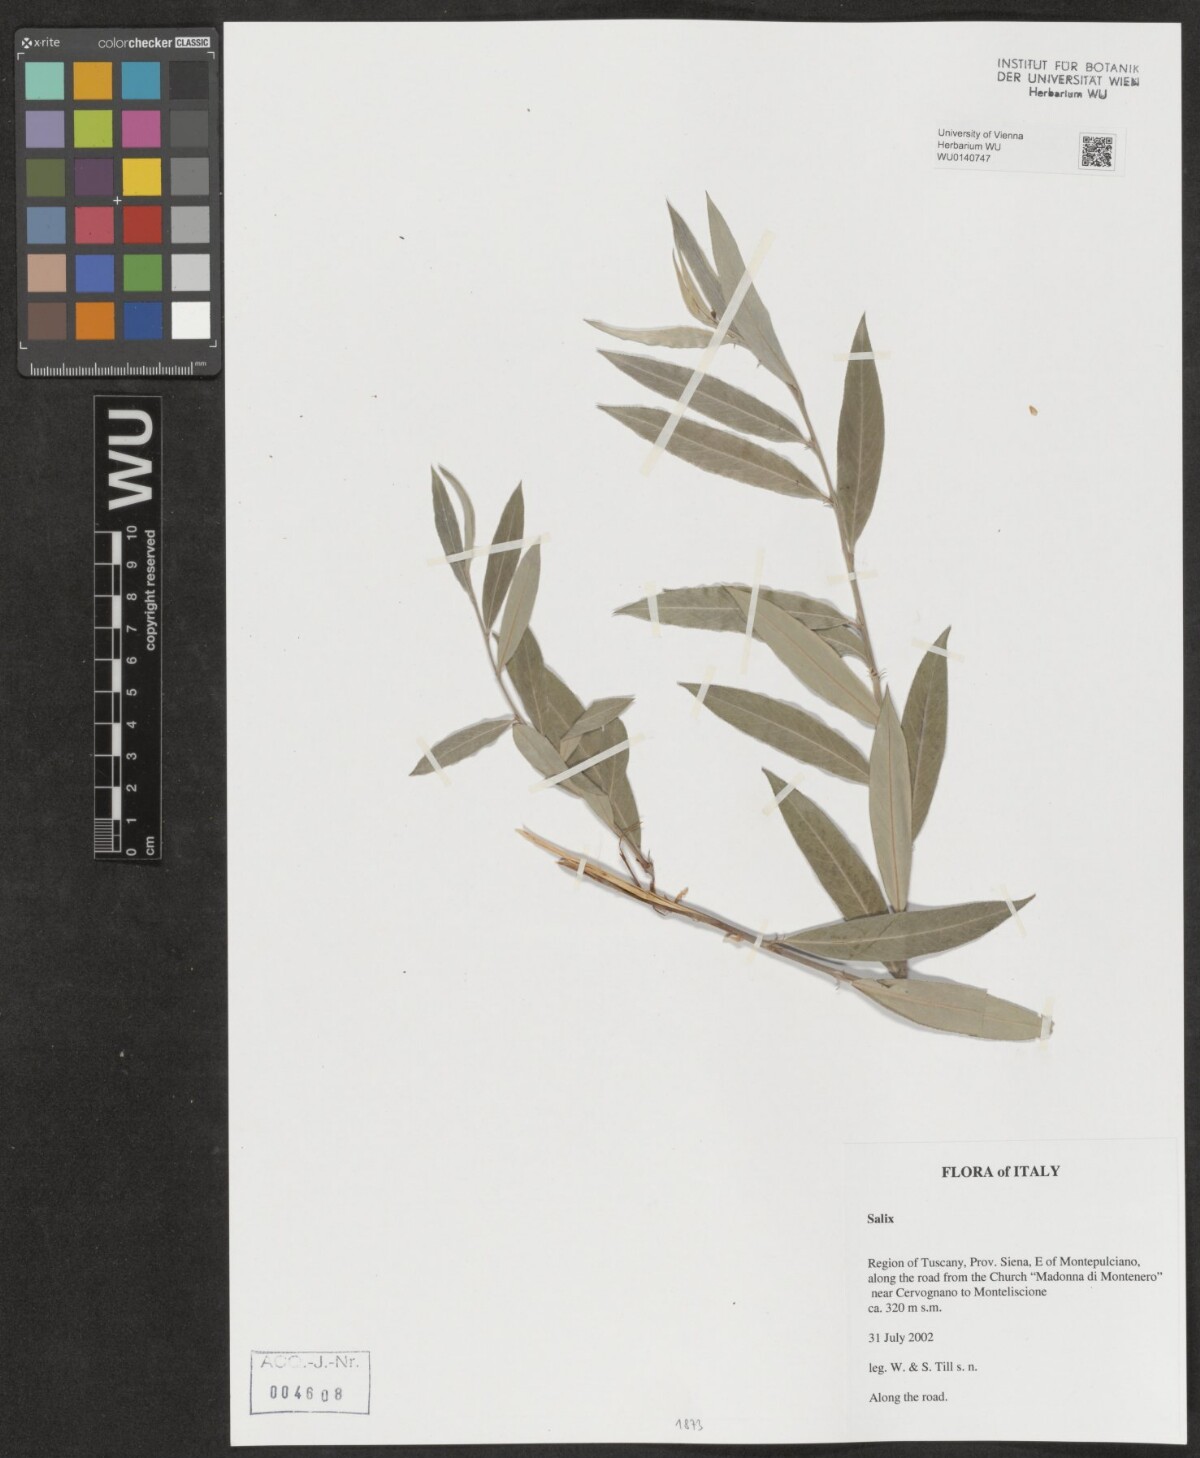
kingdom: Plantae
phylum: Tracheophyta
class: Magnoliopsida
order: Malpighiales
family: Salicaceae
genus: Salix
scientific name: Salix
